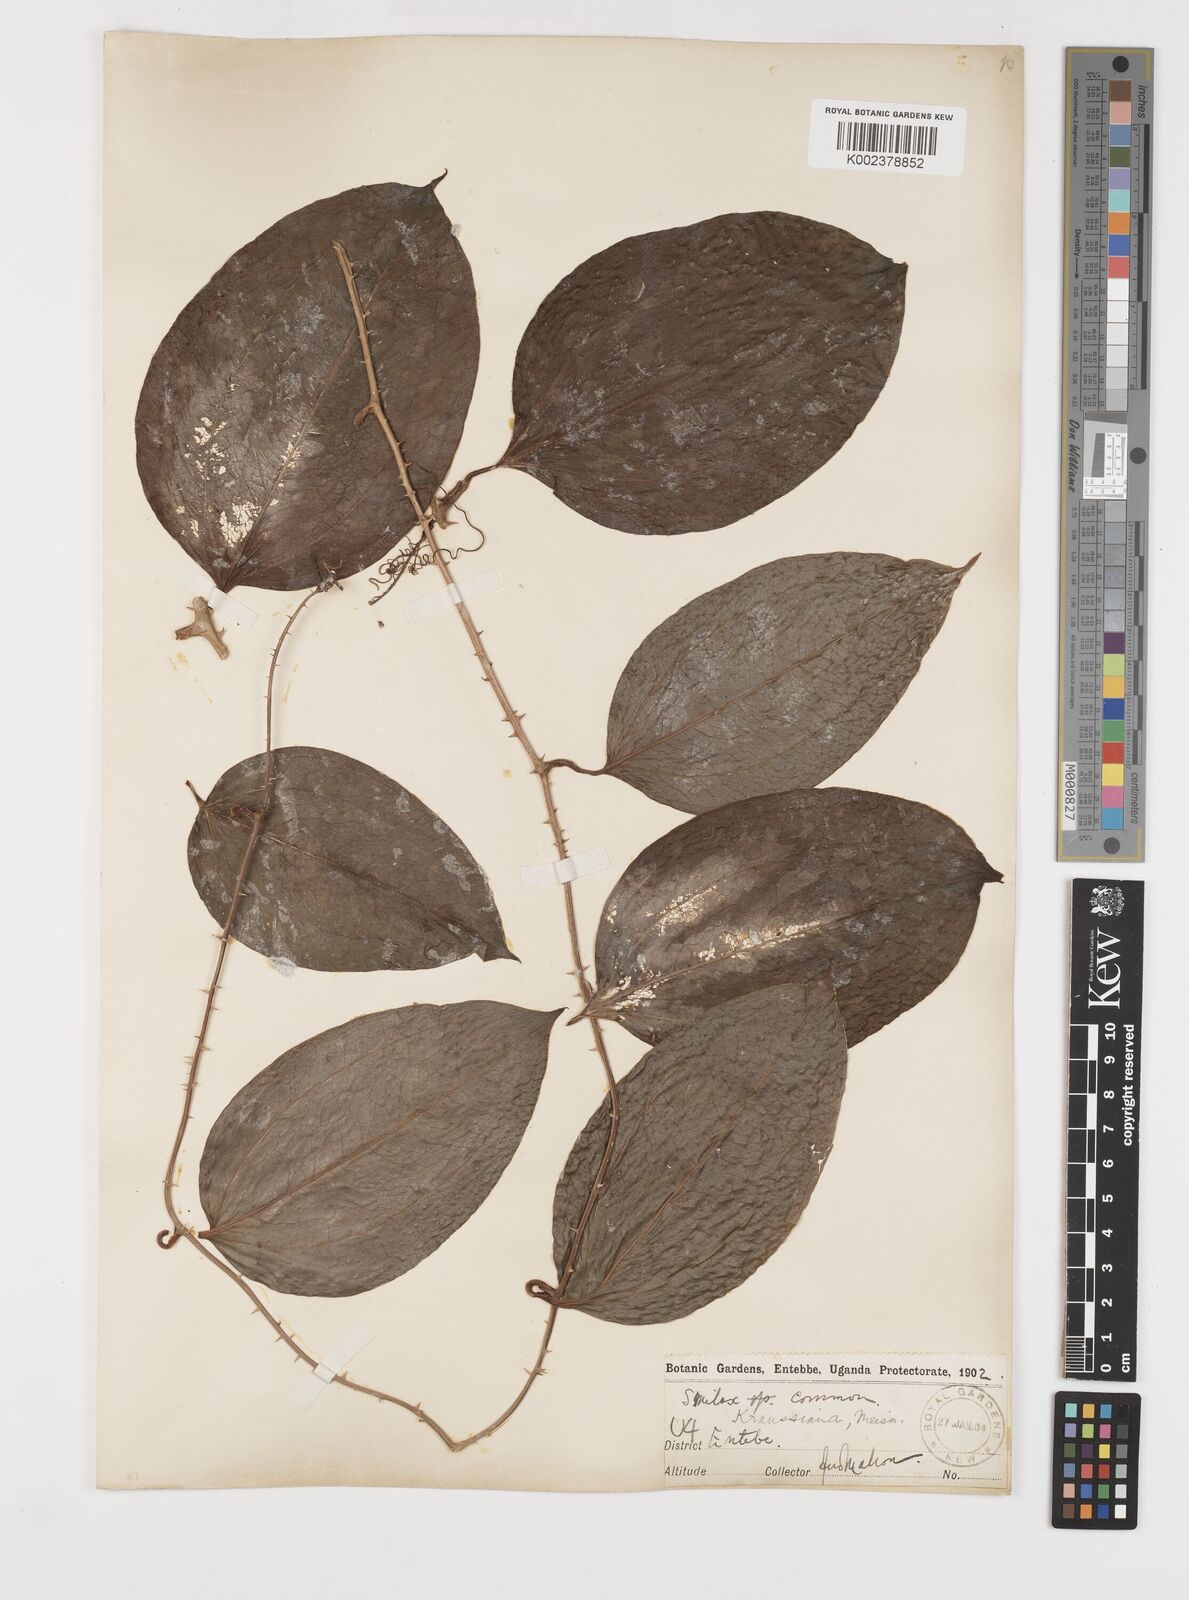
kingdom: Plantae
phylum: Tracheophyta
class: Liliopsida
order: Liliales
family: Smilacaceae
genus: Smilax
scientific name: Smilax anceps
